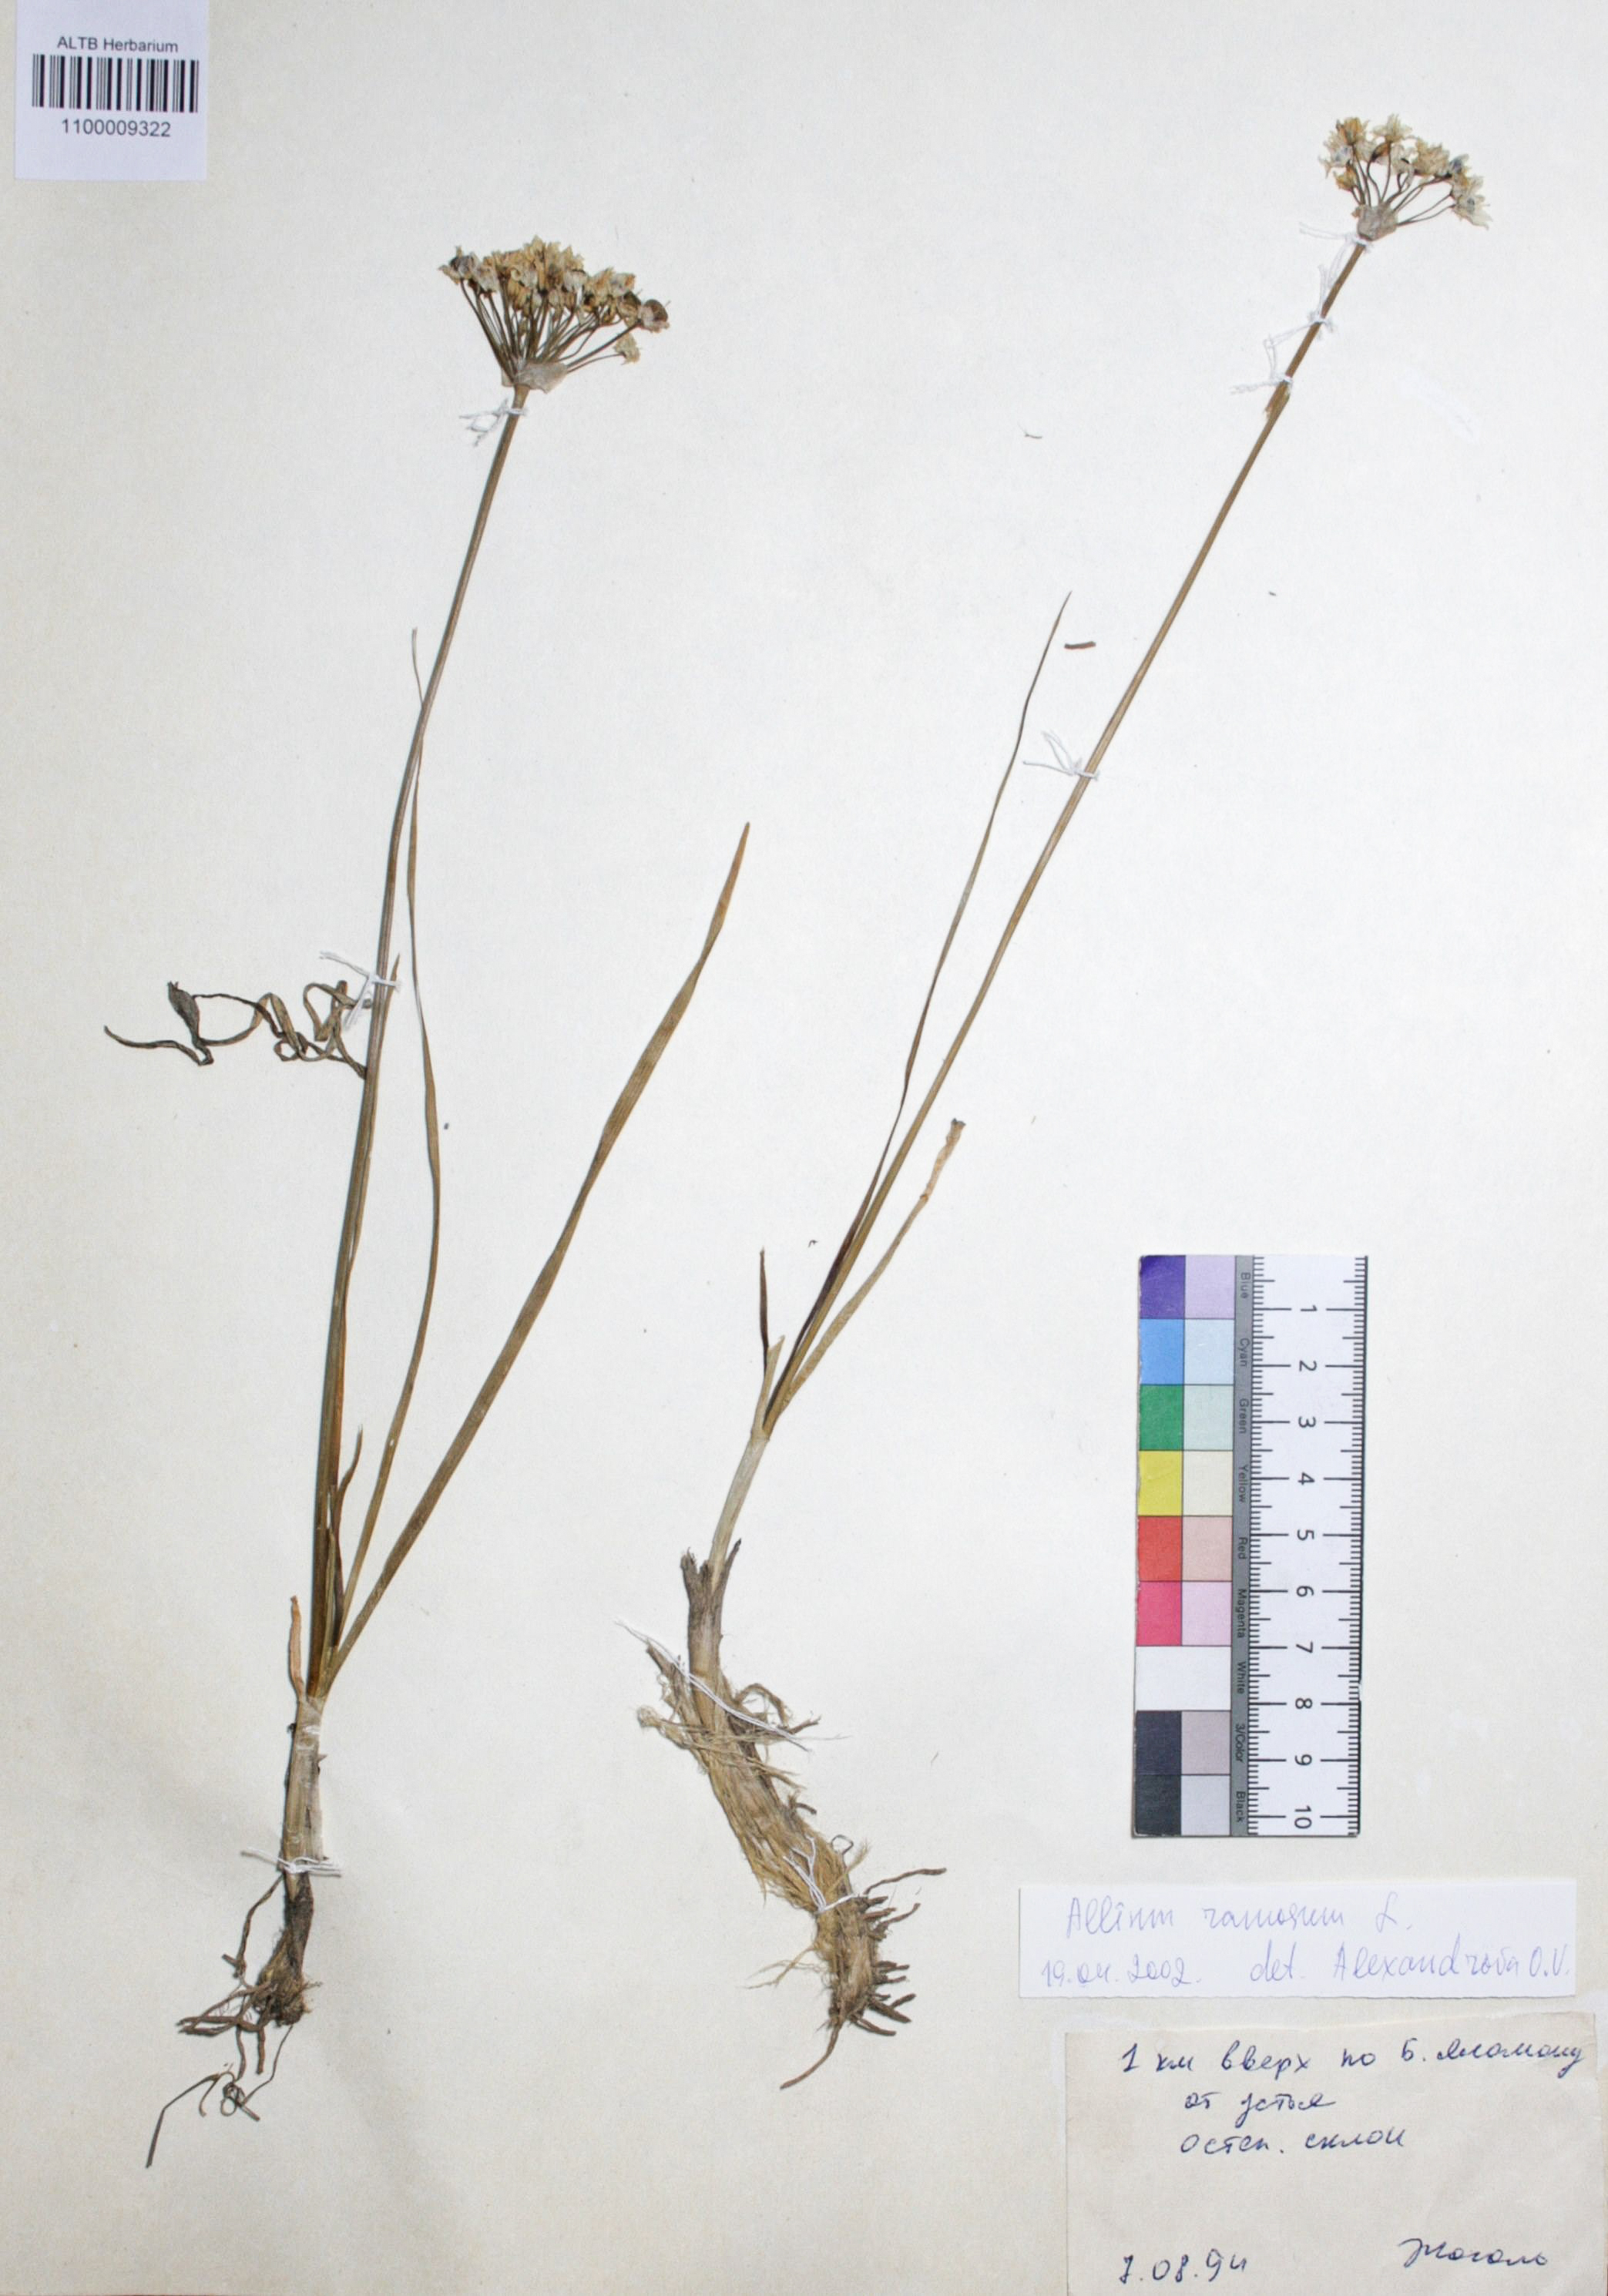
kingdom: Plantae
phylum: Tracheophyta
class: Liliopsida
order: Asparagales
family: Amaryllidaceae
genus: Allium
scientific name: Allium ramosum
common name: Fragrant garlic
